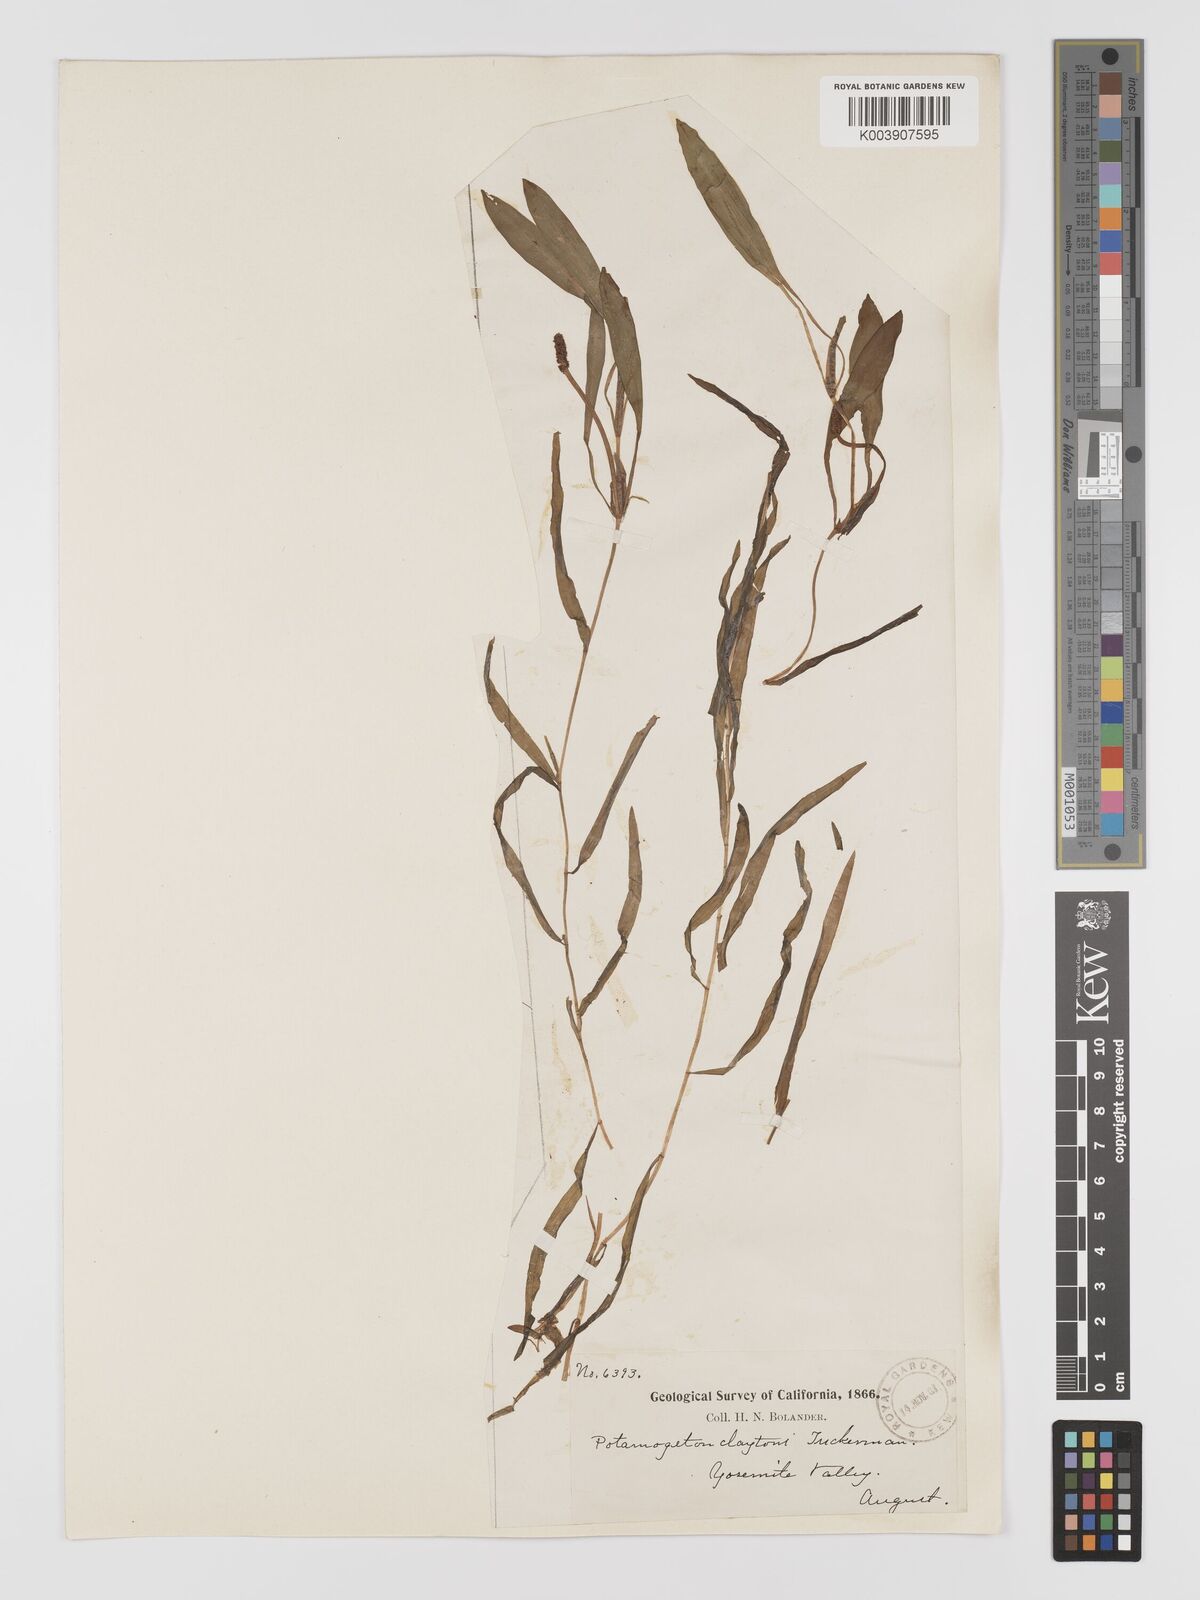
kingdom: Plantae
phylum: Tracheophyta
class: Liliopsida
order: Alismatales
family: Potamogetonaceae
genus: Potamogeton
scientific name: Potamogeton epihydrus
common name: American pondweed
